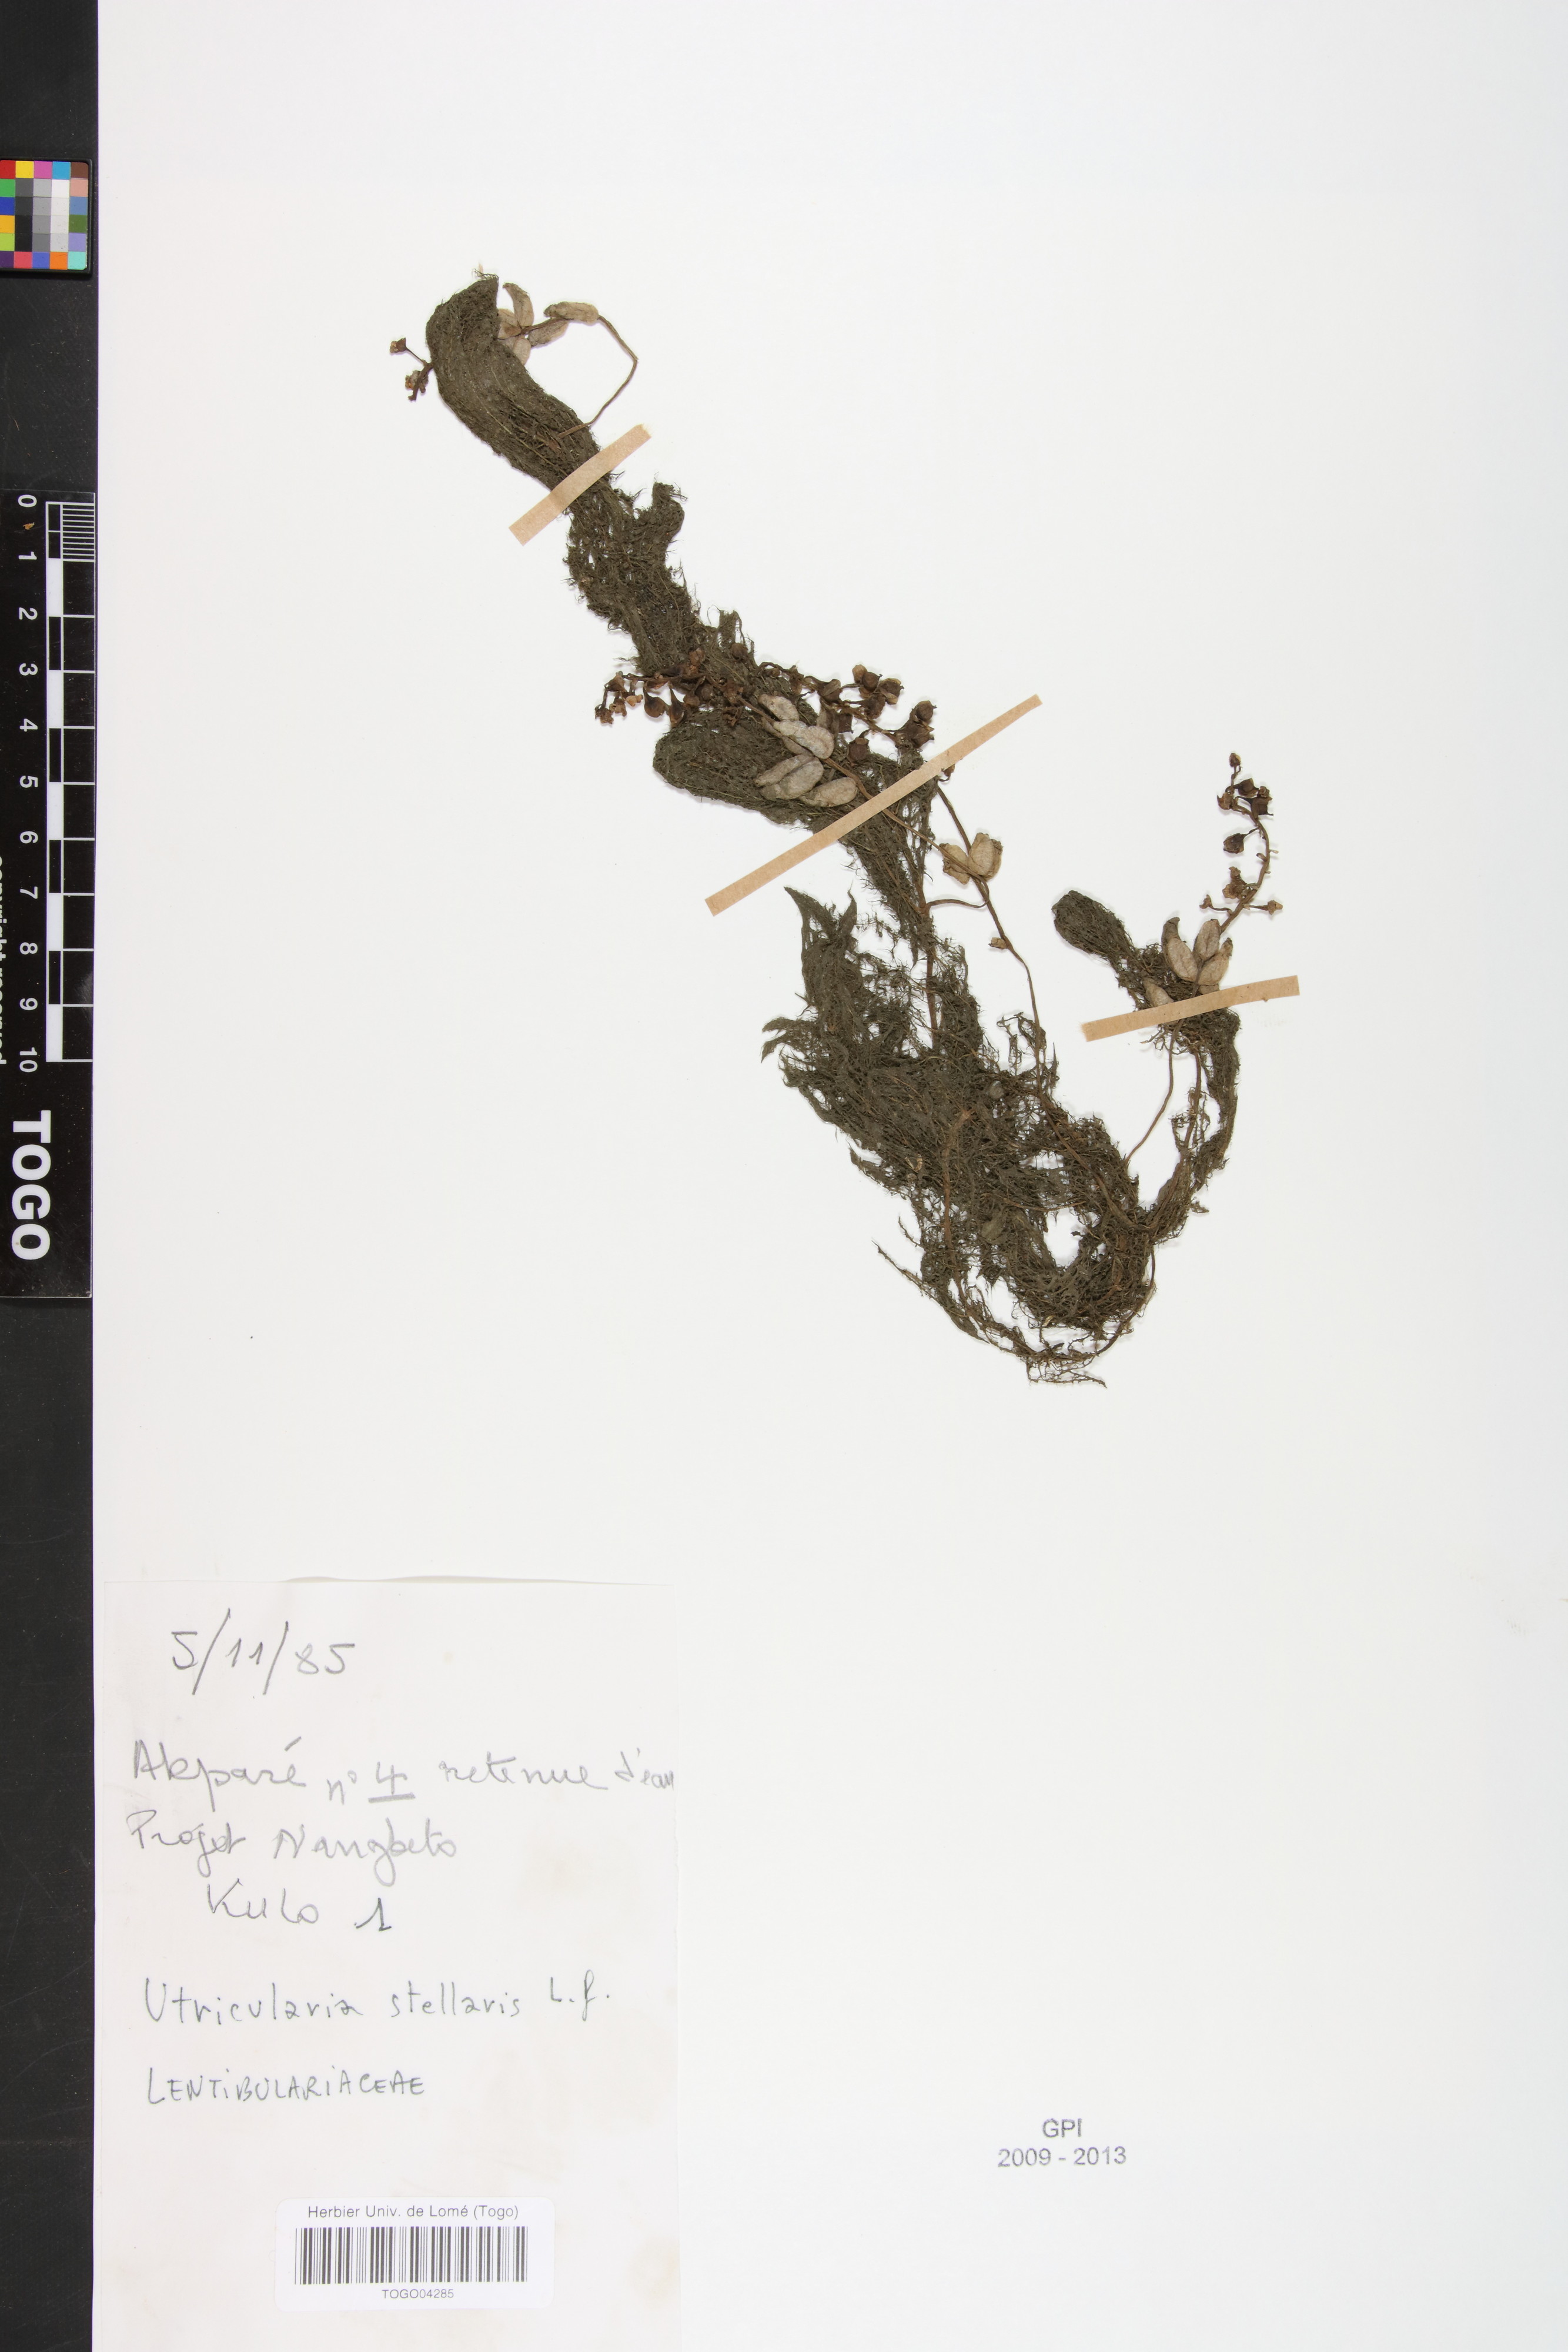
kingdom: Plantae
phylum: Tracheophyta
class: Magnoliopsida
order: Lamiales
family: Lentibulariaceae
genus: Utricularia
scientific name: Utricularia stellaris
